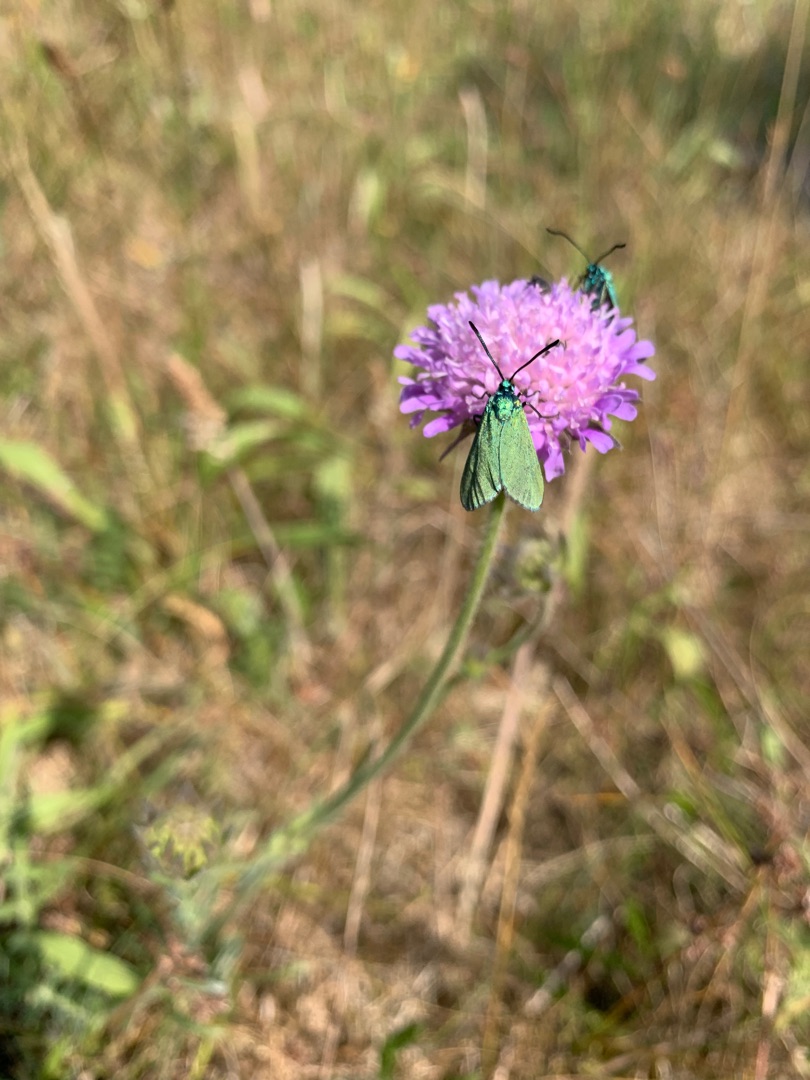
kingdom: Animalia
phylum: Arthropoda
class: Insecta
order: Lepidoptera
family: Zygaenidae
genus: Adscita
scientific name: Adscita statices
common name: Metalvinge
